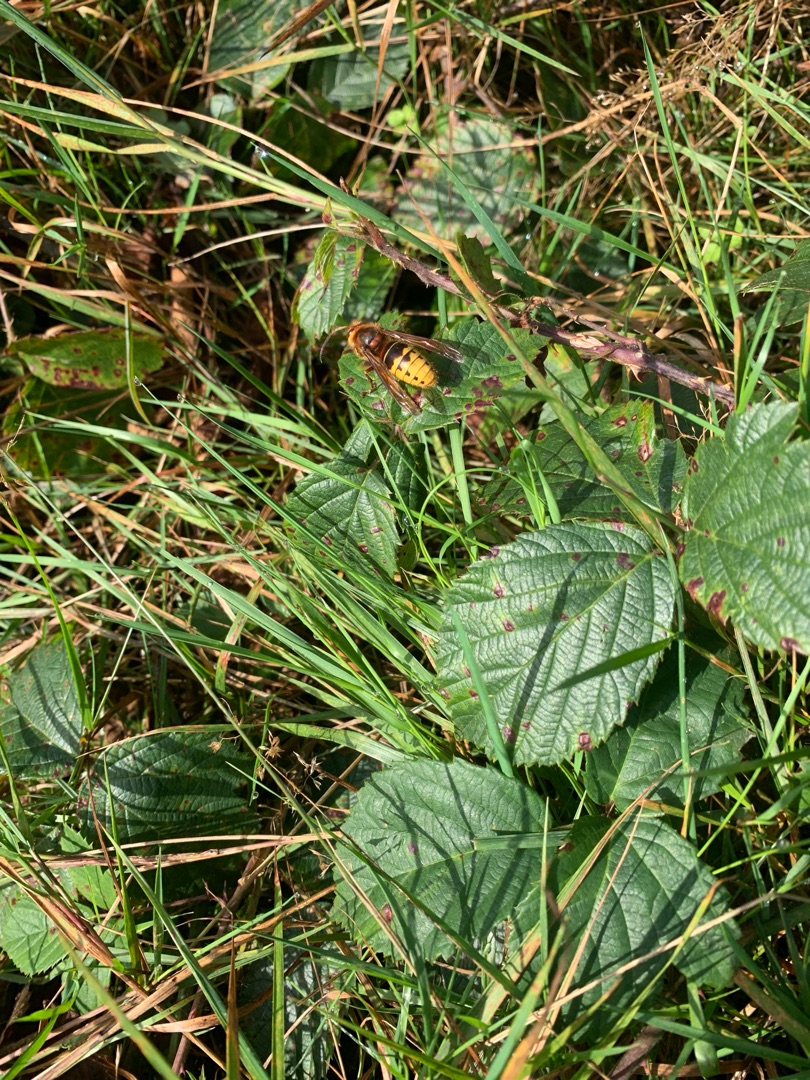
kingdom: Animalia
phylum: Arthropoda
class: Insecta
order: Hymenoptera
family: Vespidae
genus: Vespa
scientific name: Vespa crabro
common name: Stor gedehams
